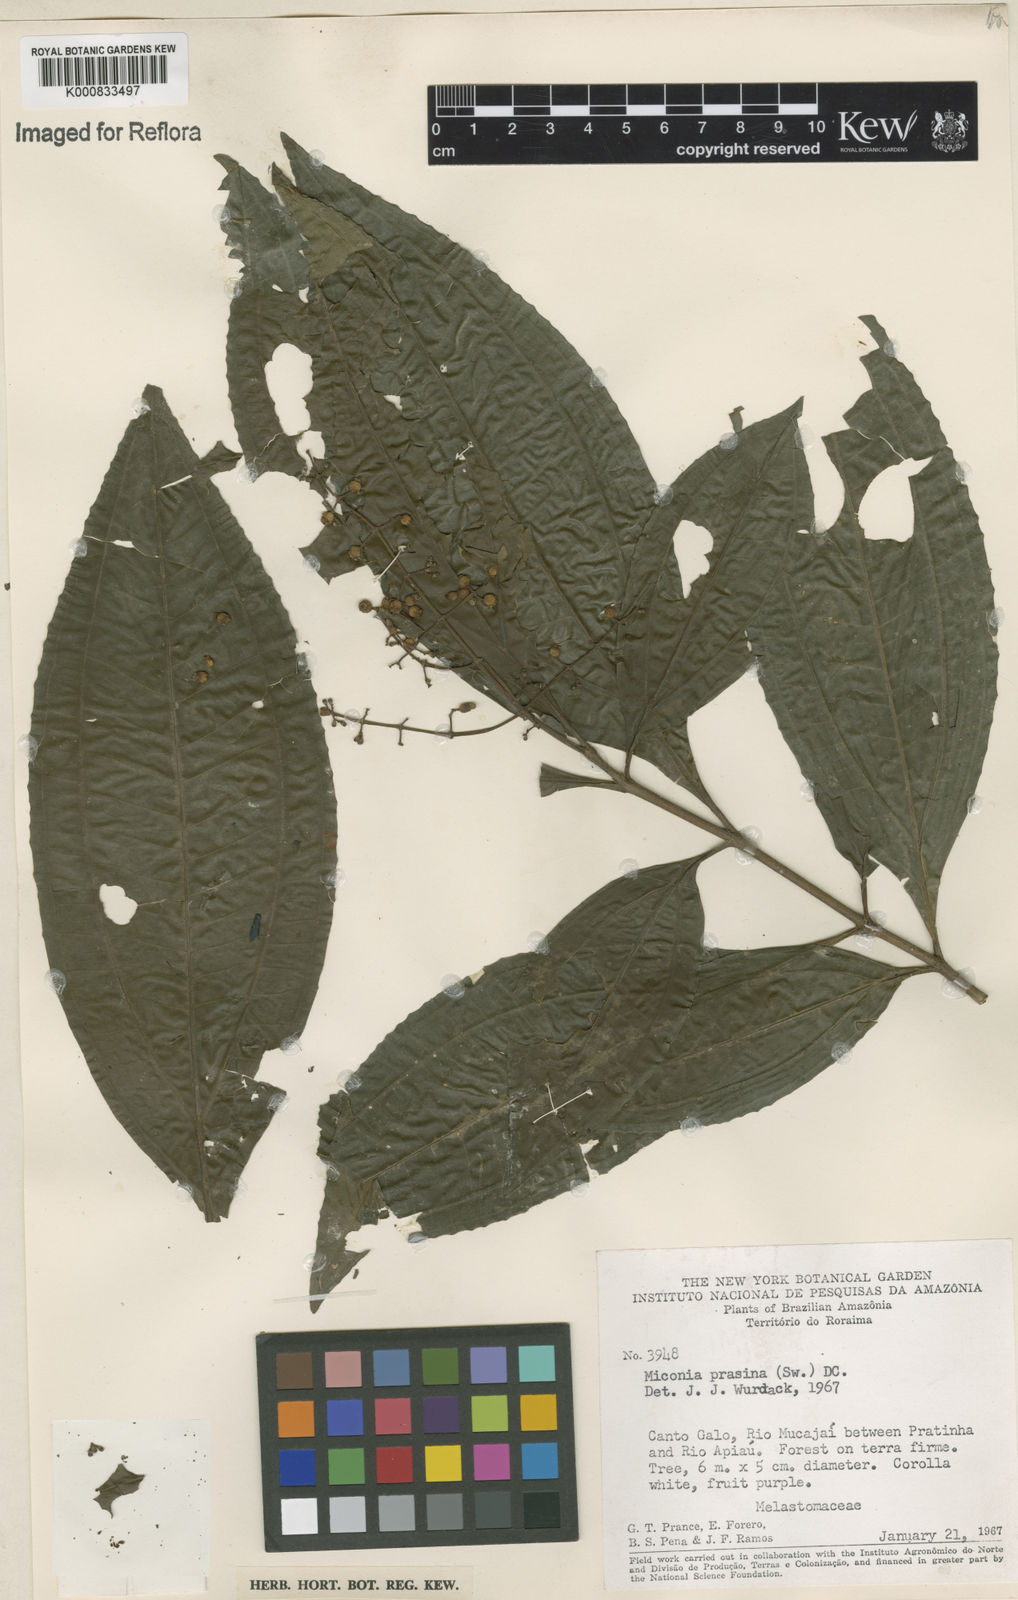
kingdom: Plantae
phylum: Tracheophyta
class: Magnoliopsida
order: Myrtales
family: Melastomataceae
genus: Miconia
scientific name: Miconia prasina
